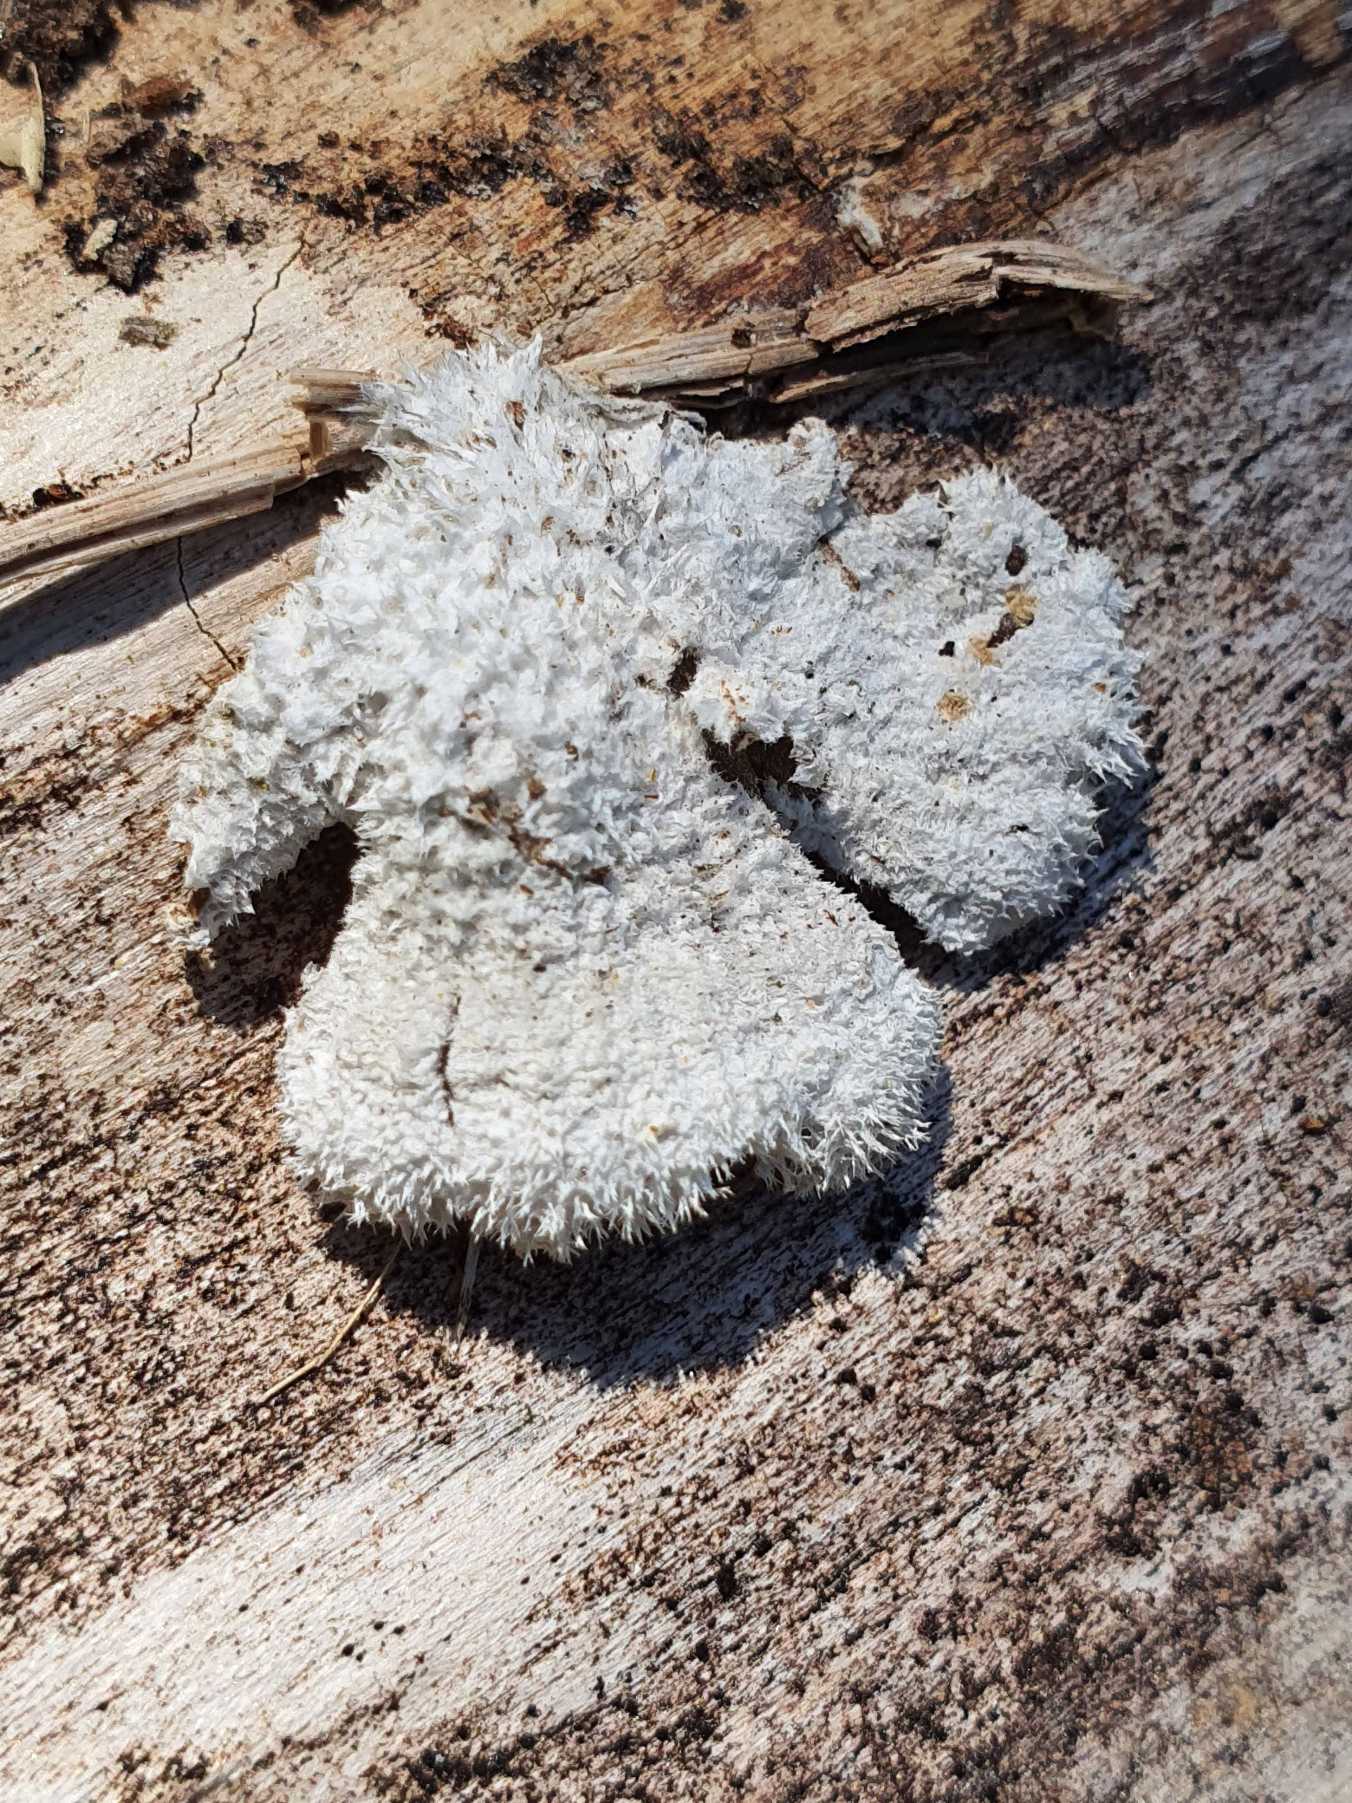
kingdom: Fungi
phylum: Basidiomycota
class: Agaricomycetes
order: Agaricales
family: Schizophyllaceae
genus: Schizophyllum
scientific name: Schizophyllum commune
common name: Kløvblad
